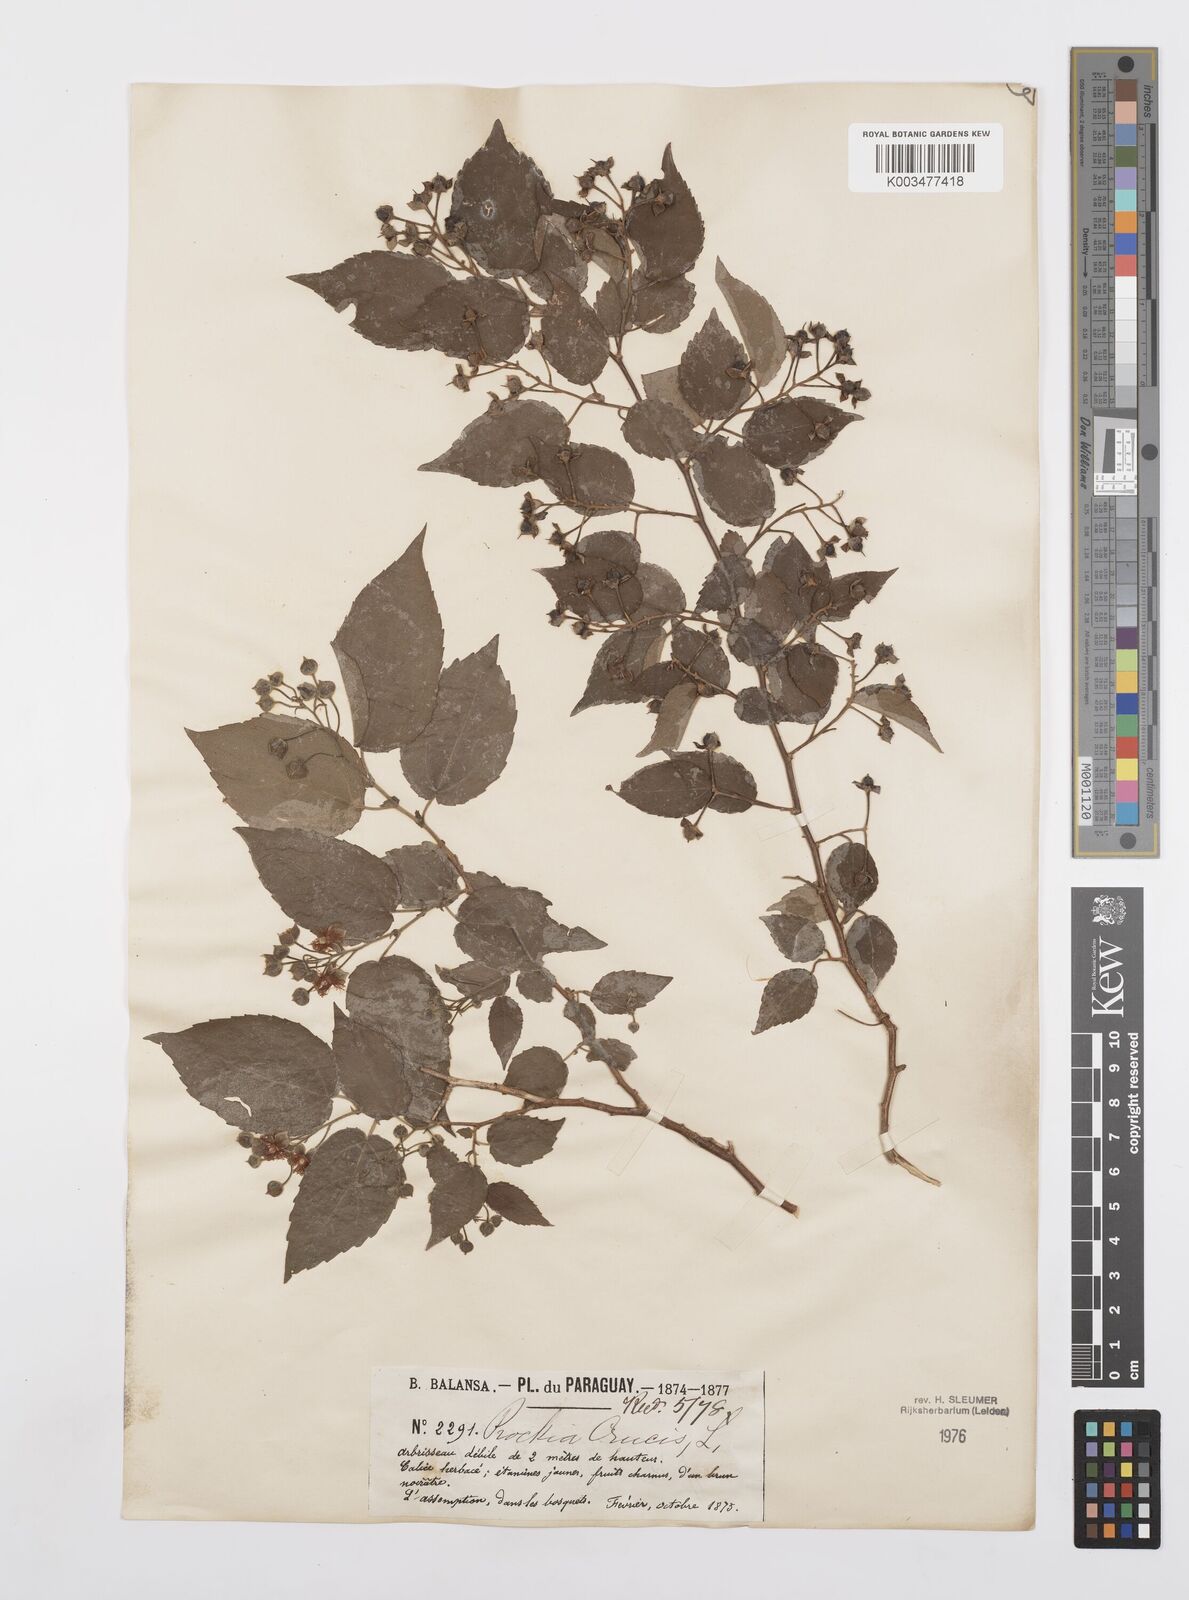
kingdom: Plantae
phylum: Tracheophyta
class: Magnoliopsida
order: Malpighiales
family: Salicaceae
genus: Prockia
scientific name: Prockia crucis
